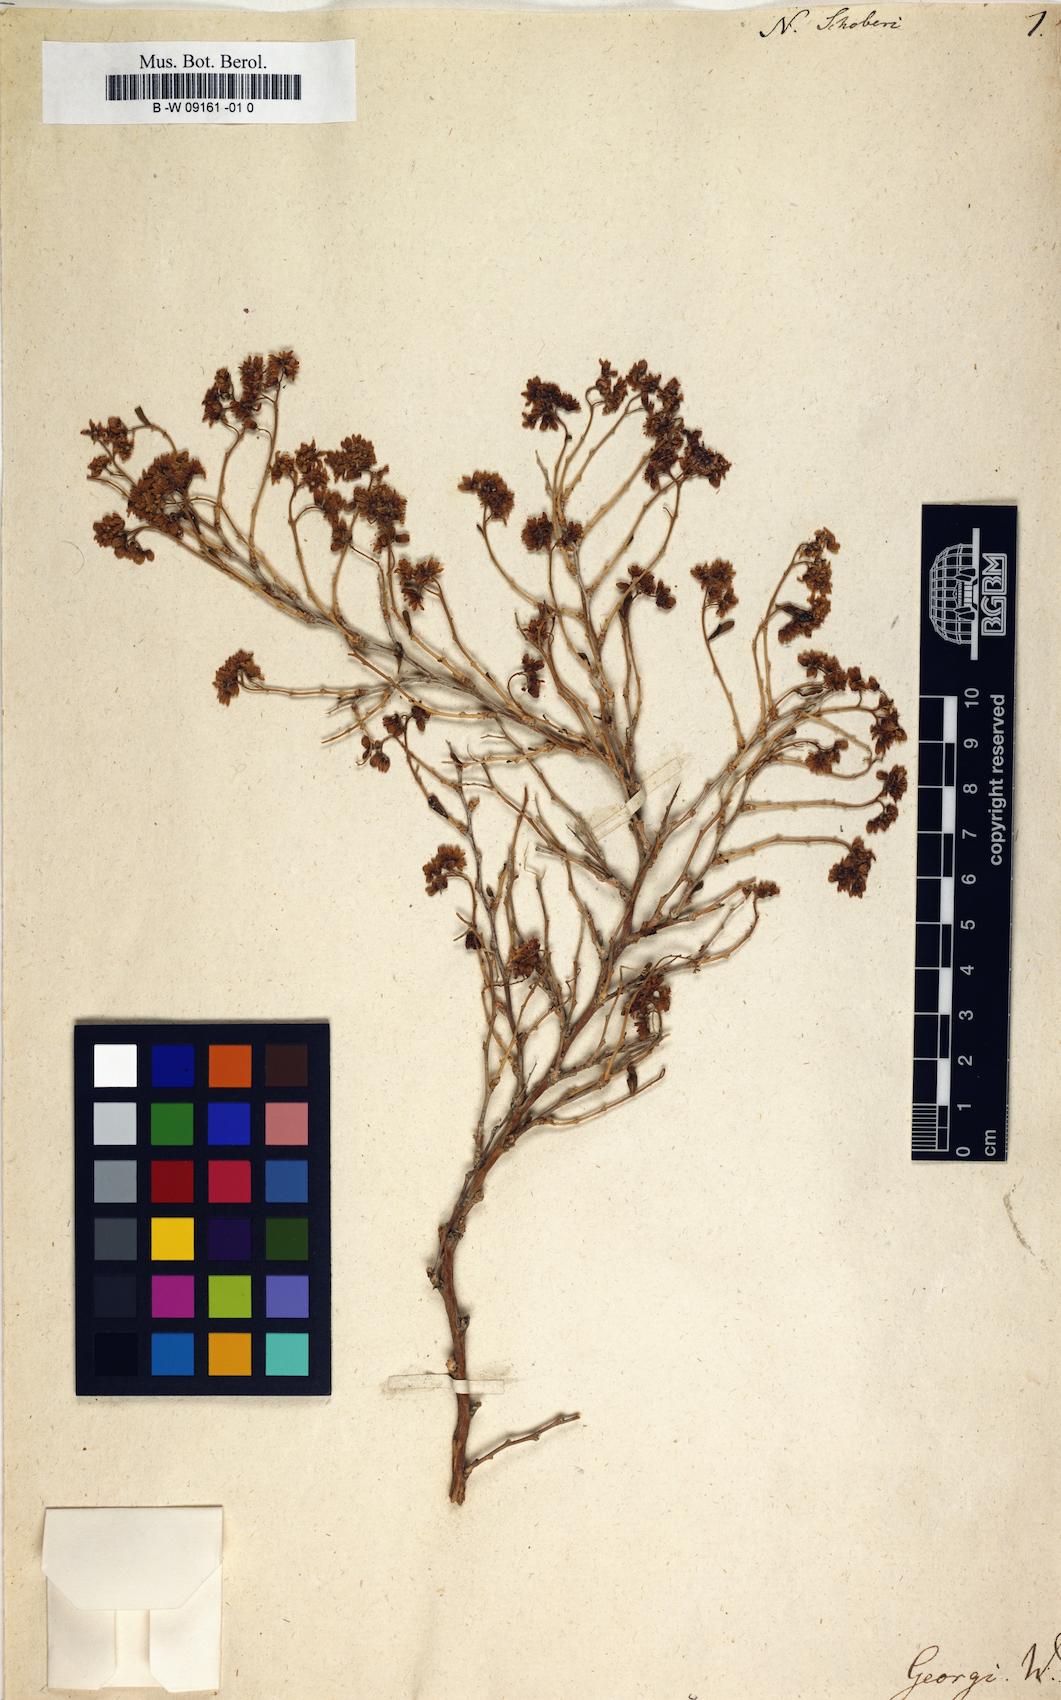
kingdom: Plantae
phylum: Tracheophyta
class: Magnoliopsida
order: Sapindales
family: Nitrariaceae
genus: Nitraria
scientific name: Nitraria schoberi
